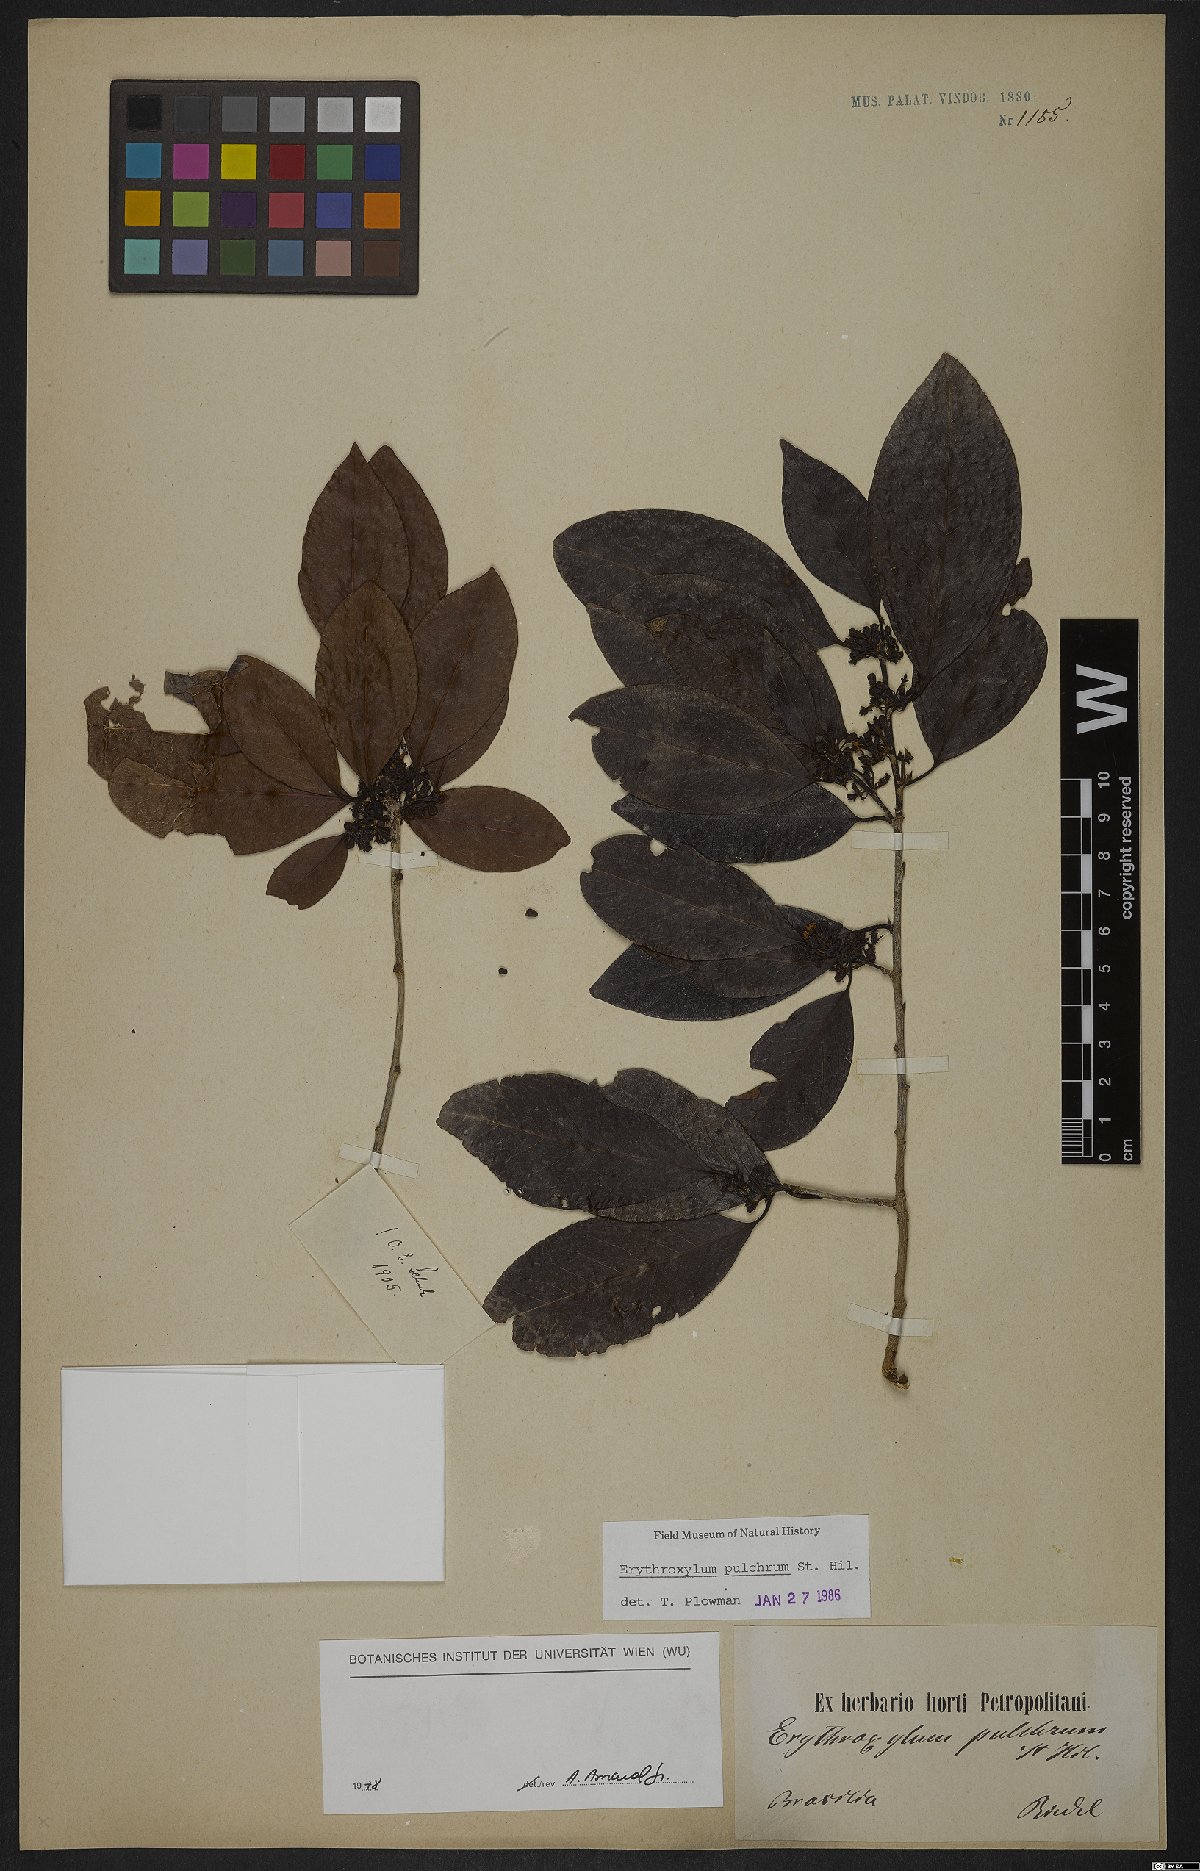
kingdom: Plantae
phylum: Tracheophyta
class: Magnoliopsida
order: Malpighiales
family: Erythroxylaceae
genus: Erythroxylum
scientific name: Erythroxylum pulchrum
